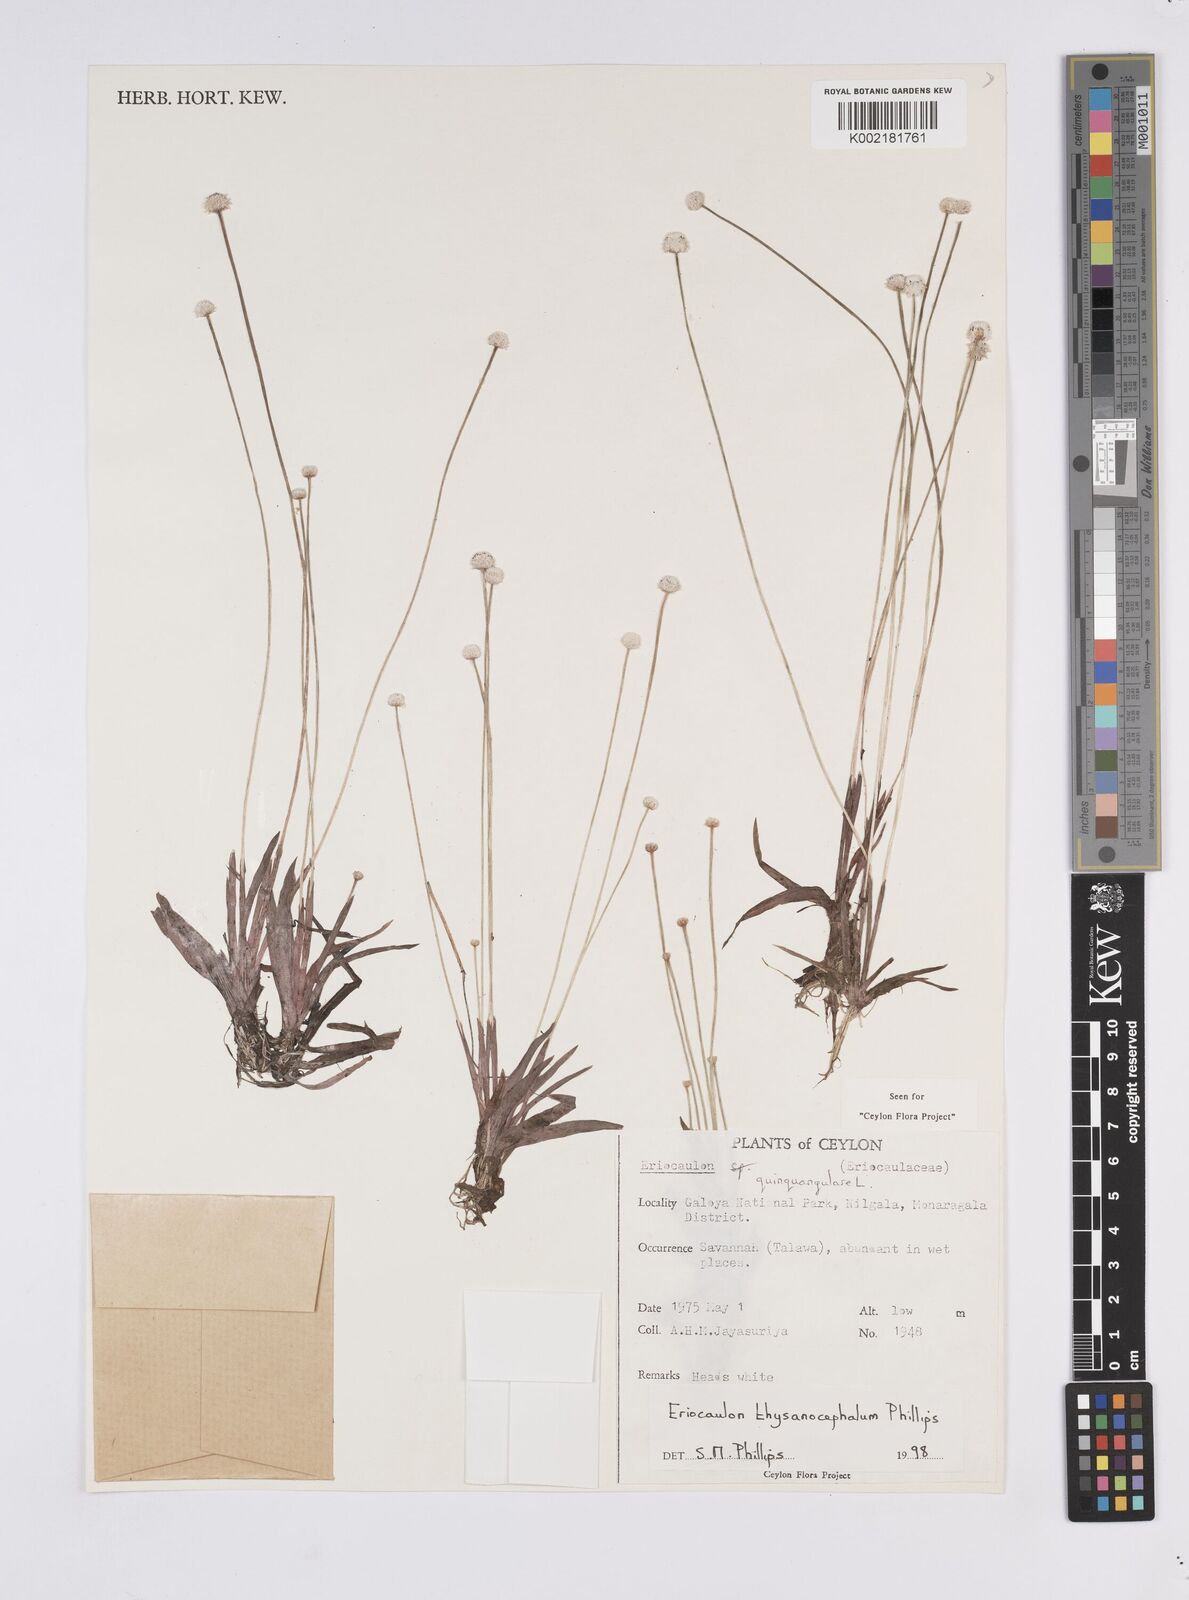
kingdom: Plantae
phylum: Tracheophyta
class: Liliopsida
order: Poales
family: Eriocaulaceae
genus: Eriocaulon
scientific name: Eriocaulon quinquangulare
